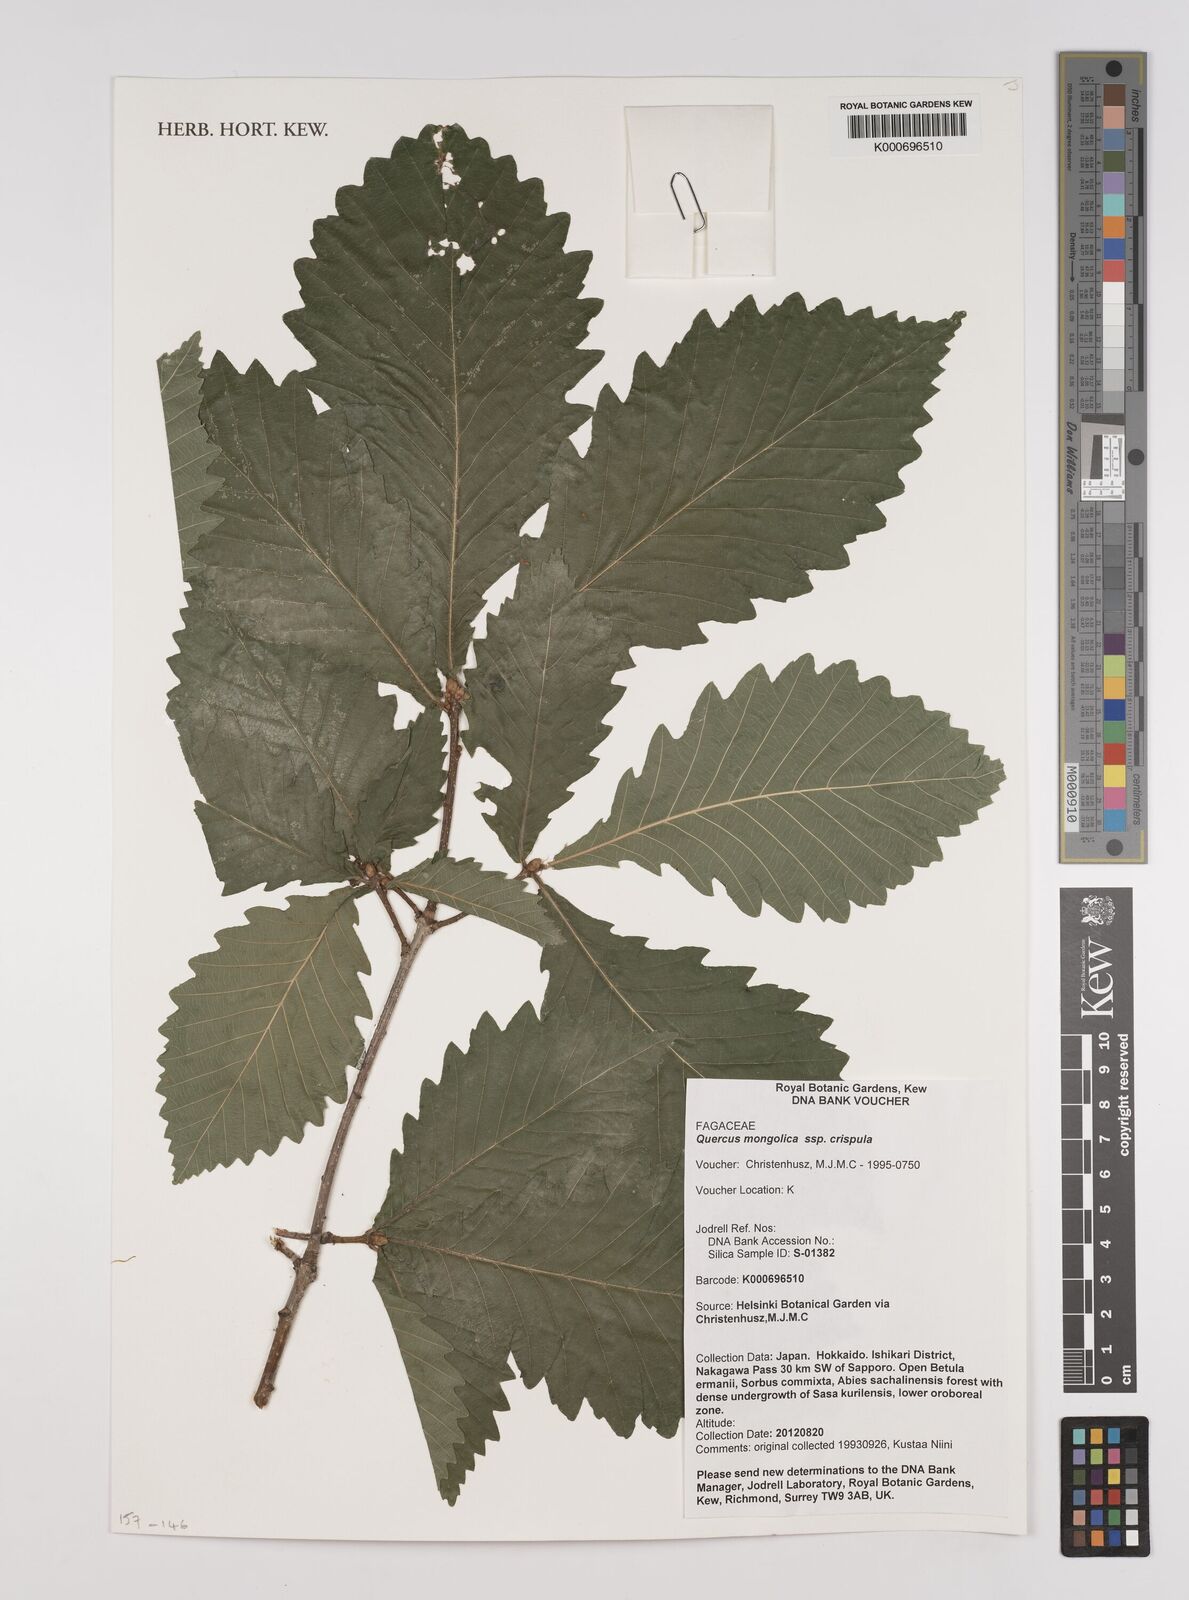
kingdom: Plantae
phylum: Tracheophyta
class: Magnoliopsida
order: Fagales
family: Fagaceae
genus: Quercus
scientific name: Quercus
